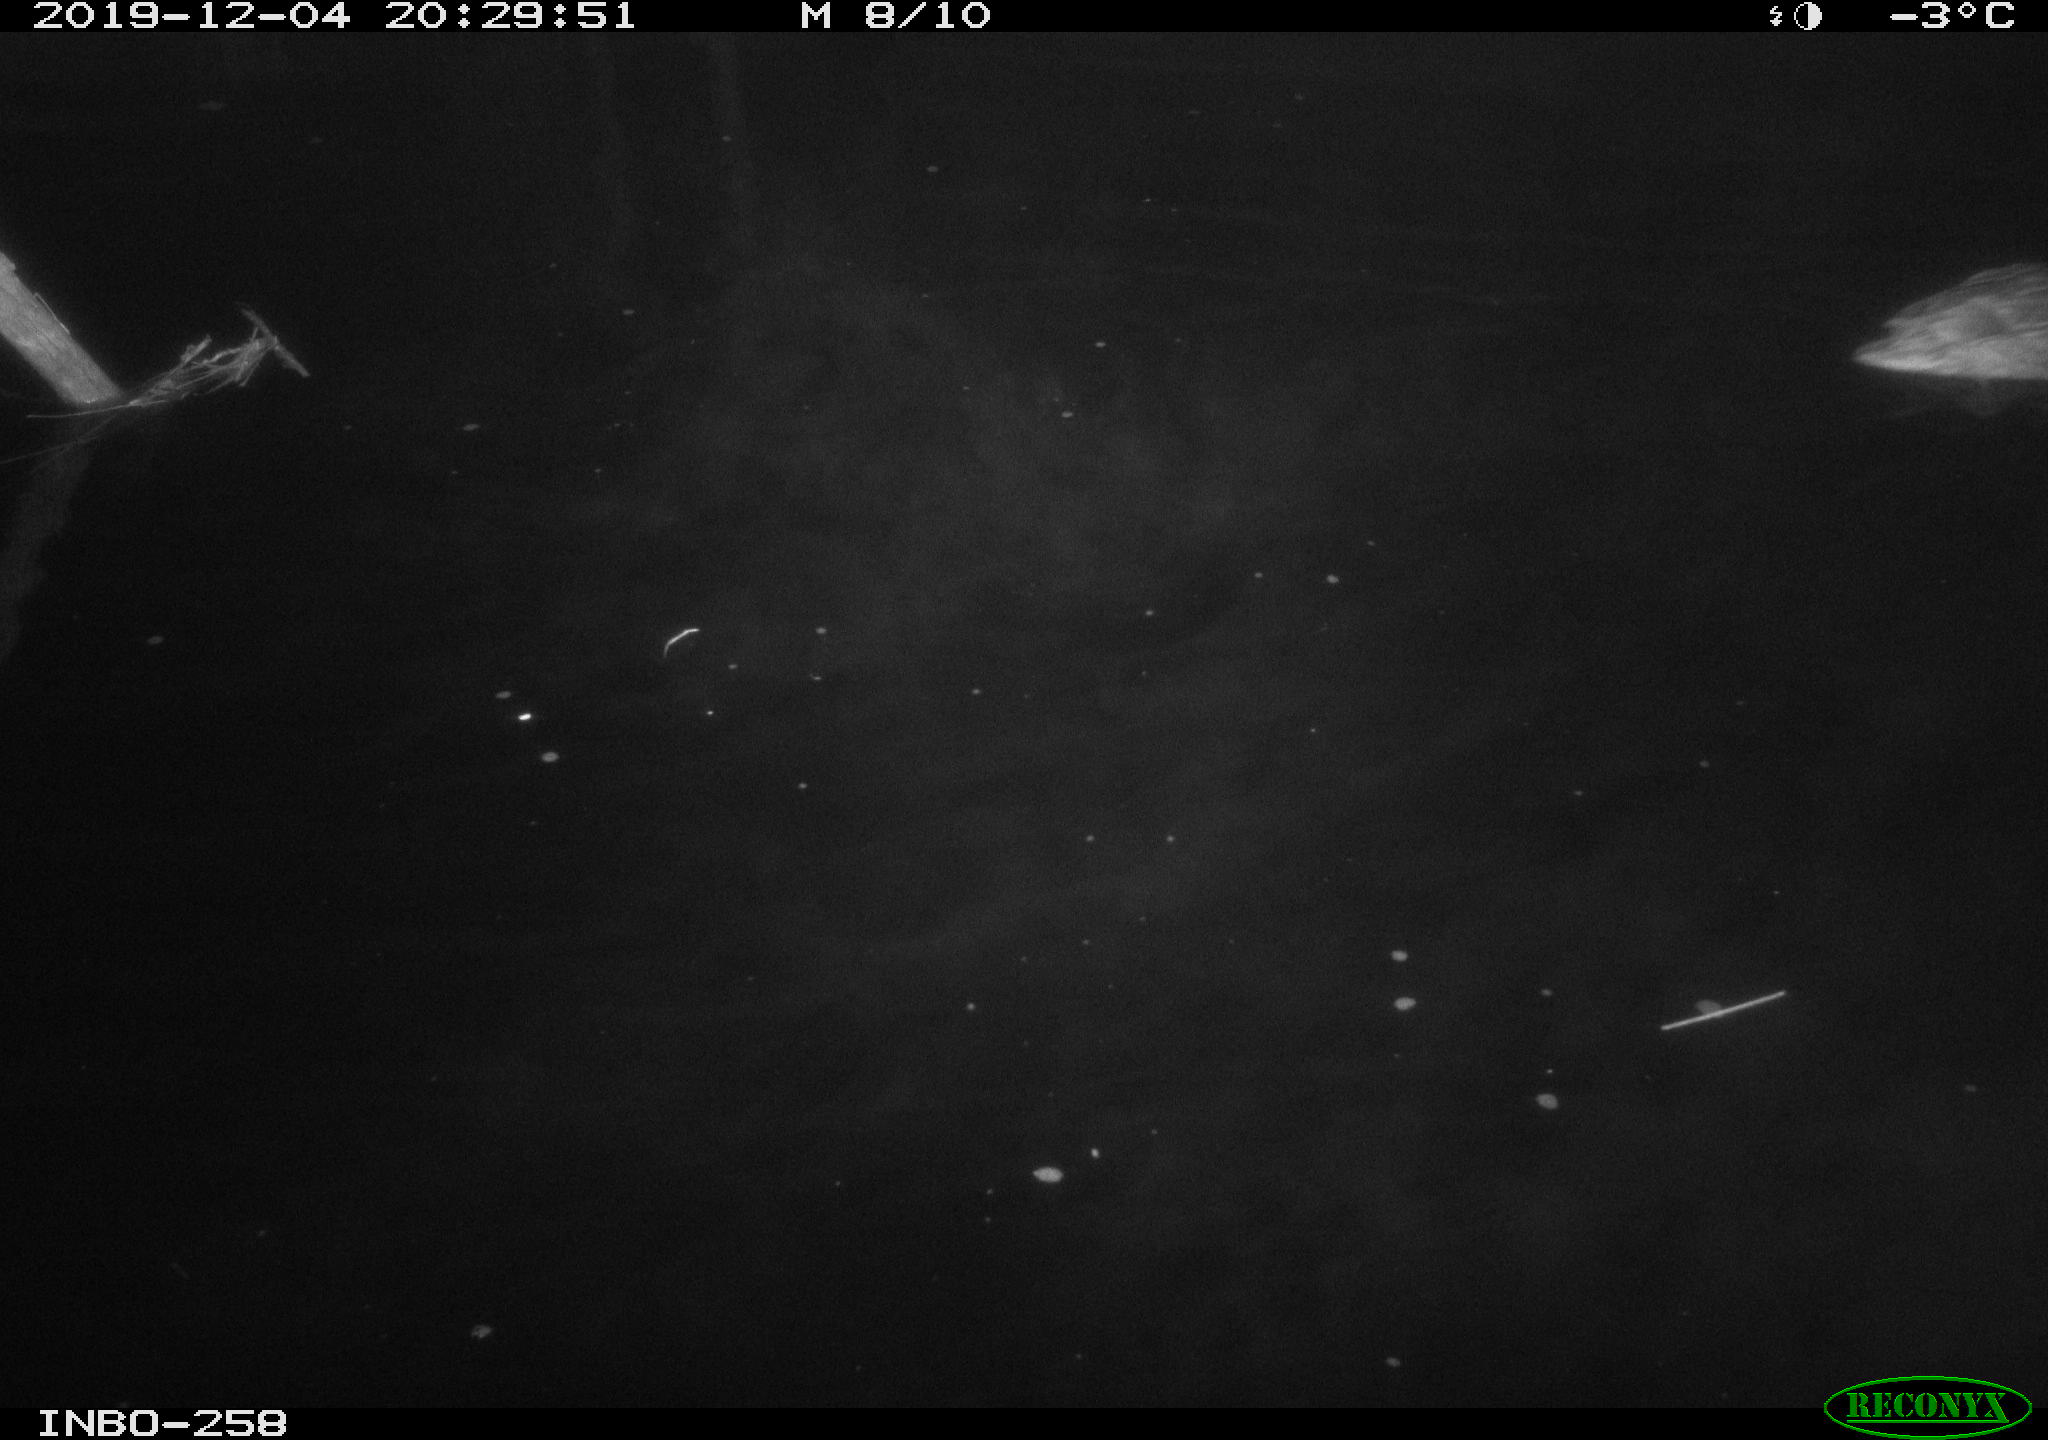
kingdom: Animalia
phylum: Chordata
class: Aves
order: Anseriformes
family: Anatidae
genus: Anas
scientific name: Anas platyrhynchos
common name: Mallard
